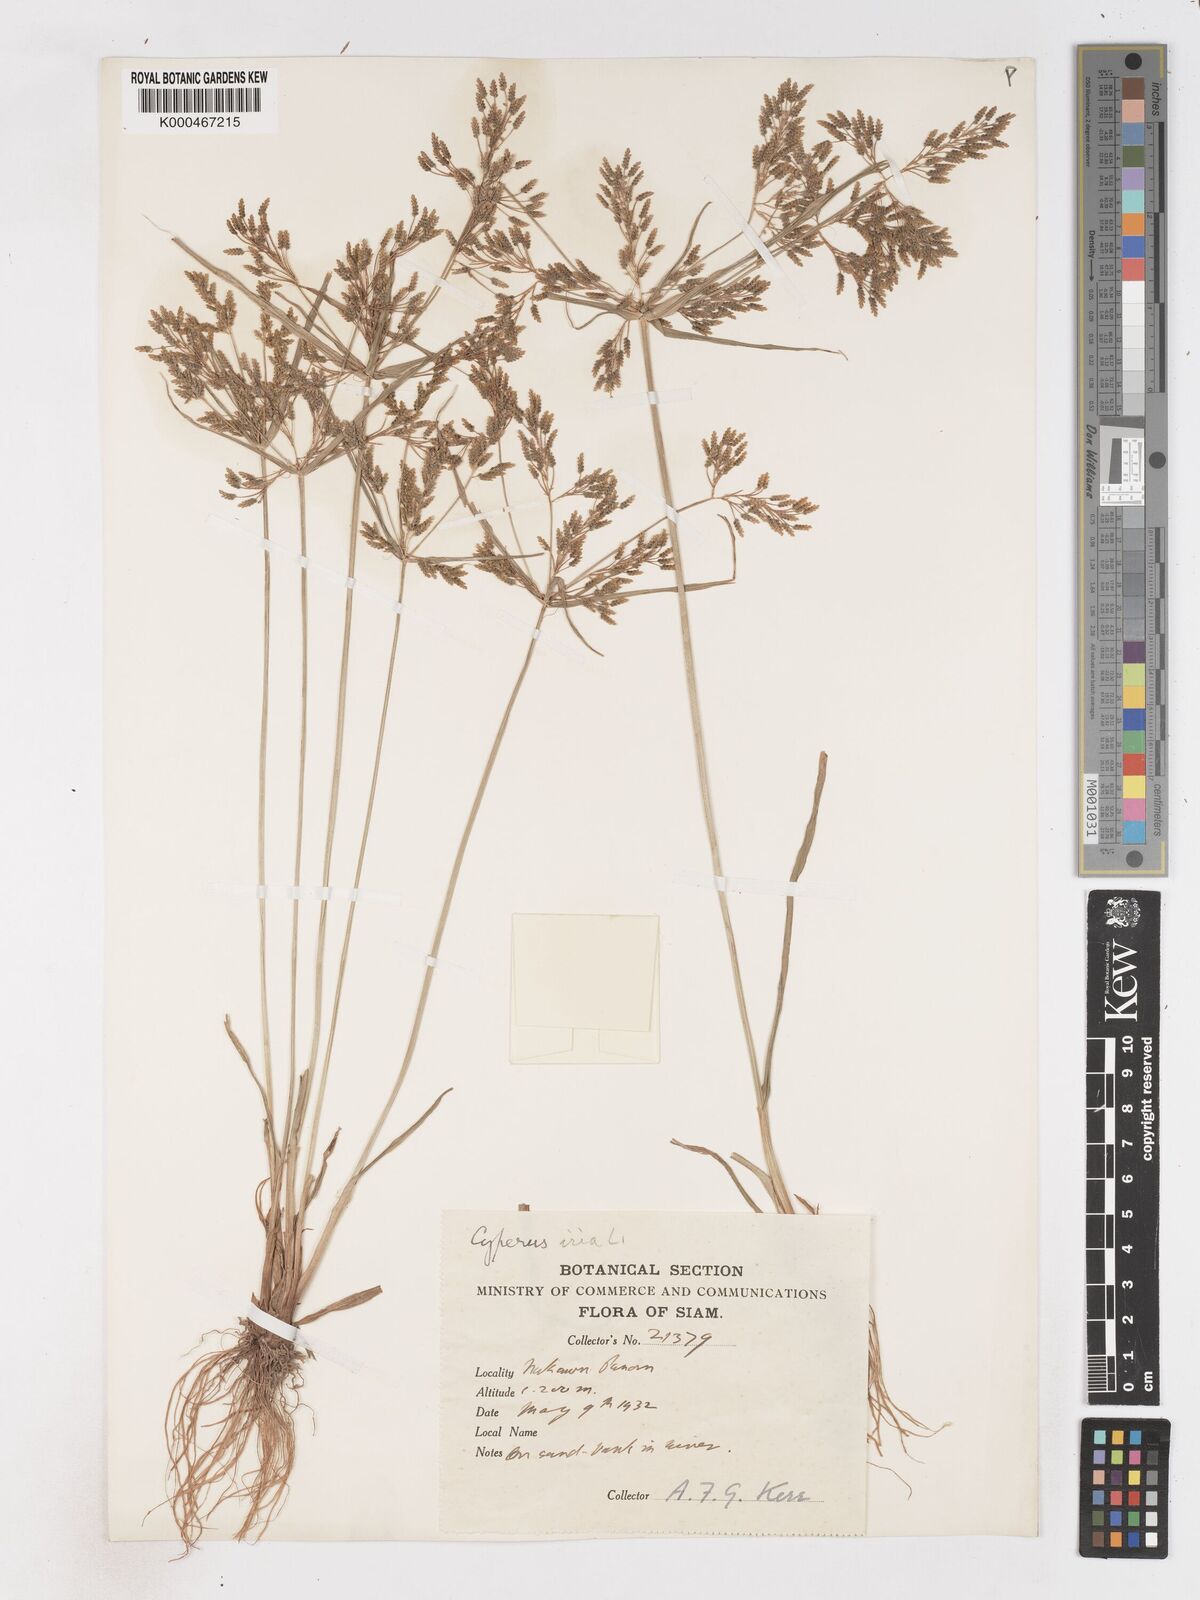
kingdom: Plantae
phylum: Tracheophyta
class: Liliopsida
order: Poales
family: Cyperaceae
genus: Cyperus
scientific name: Cyperus iria
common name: Ricefield flatsedge
